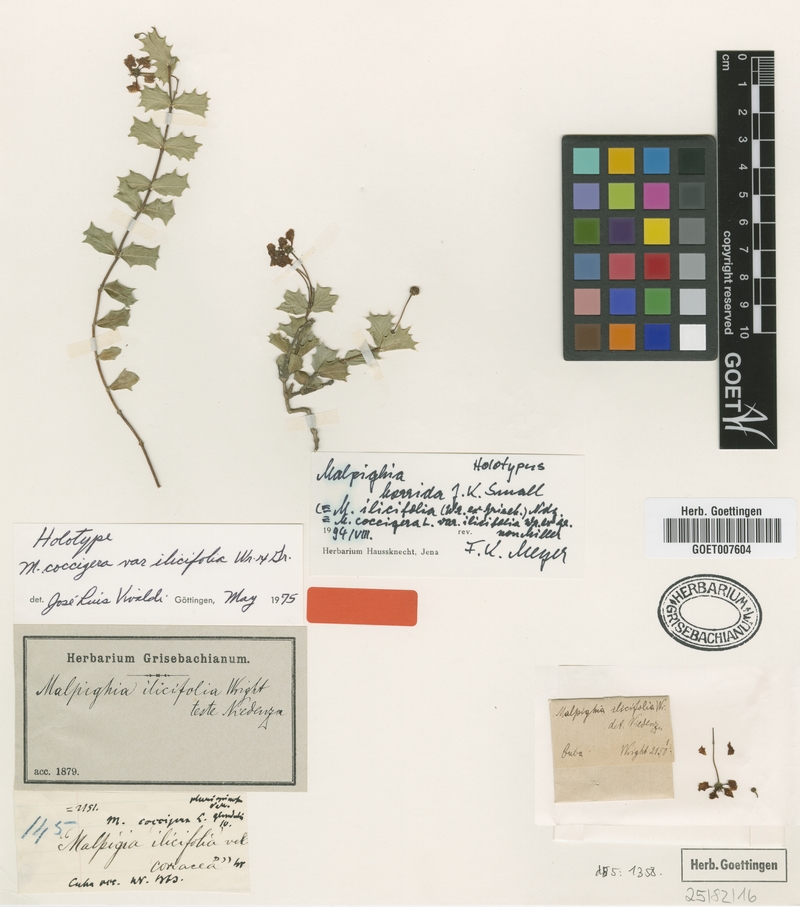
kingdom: Plantae
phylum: Tracheophyta
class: Magnoliopsida
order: Malpighiales
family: Malpighiaceae
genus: Malpighia
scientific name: Malpighia coccigera
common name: Singapore holly
